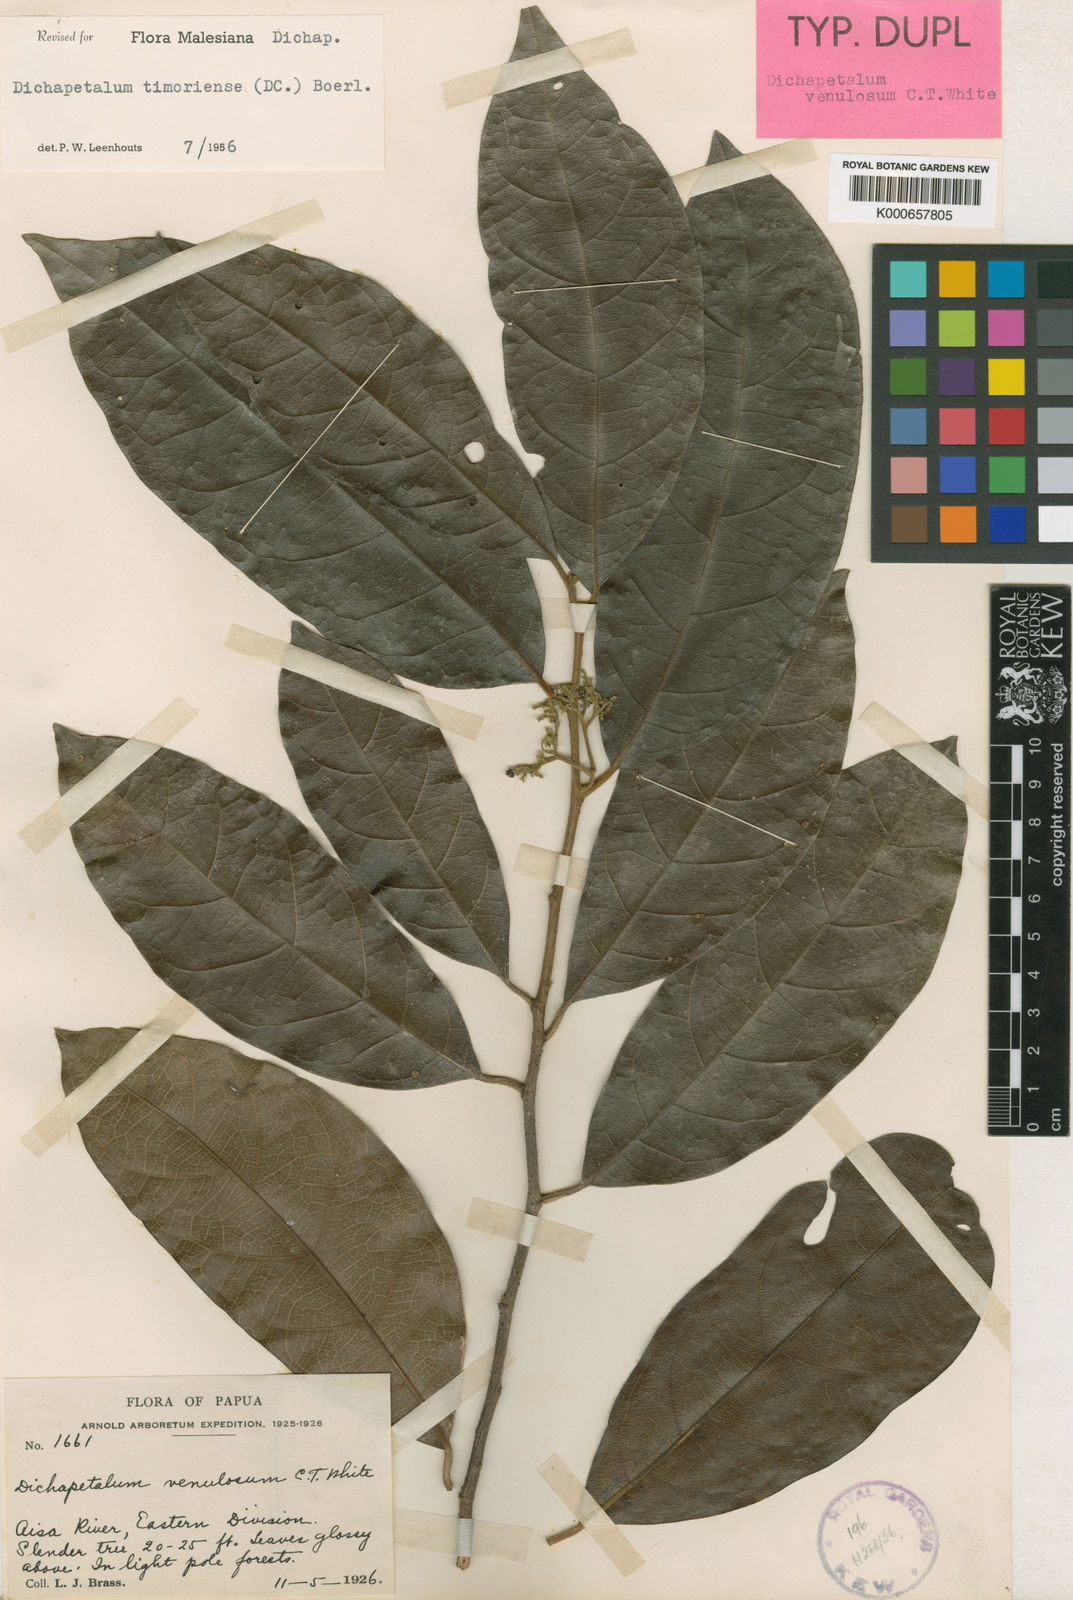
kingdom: Plantae
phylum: Tracheophyta
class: Magnoliopsida
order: Malpighiales
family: Dichapetalaceae
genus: Dichapetalum
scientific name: Dichapetalum timoriense
